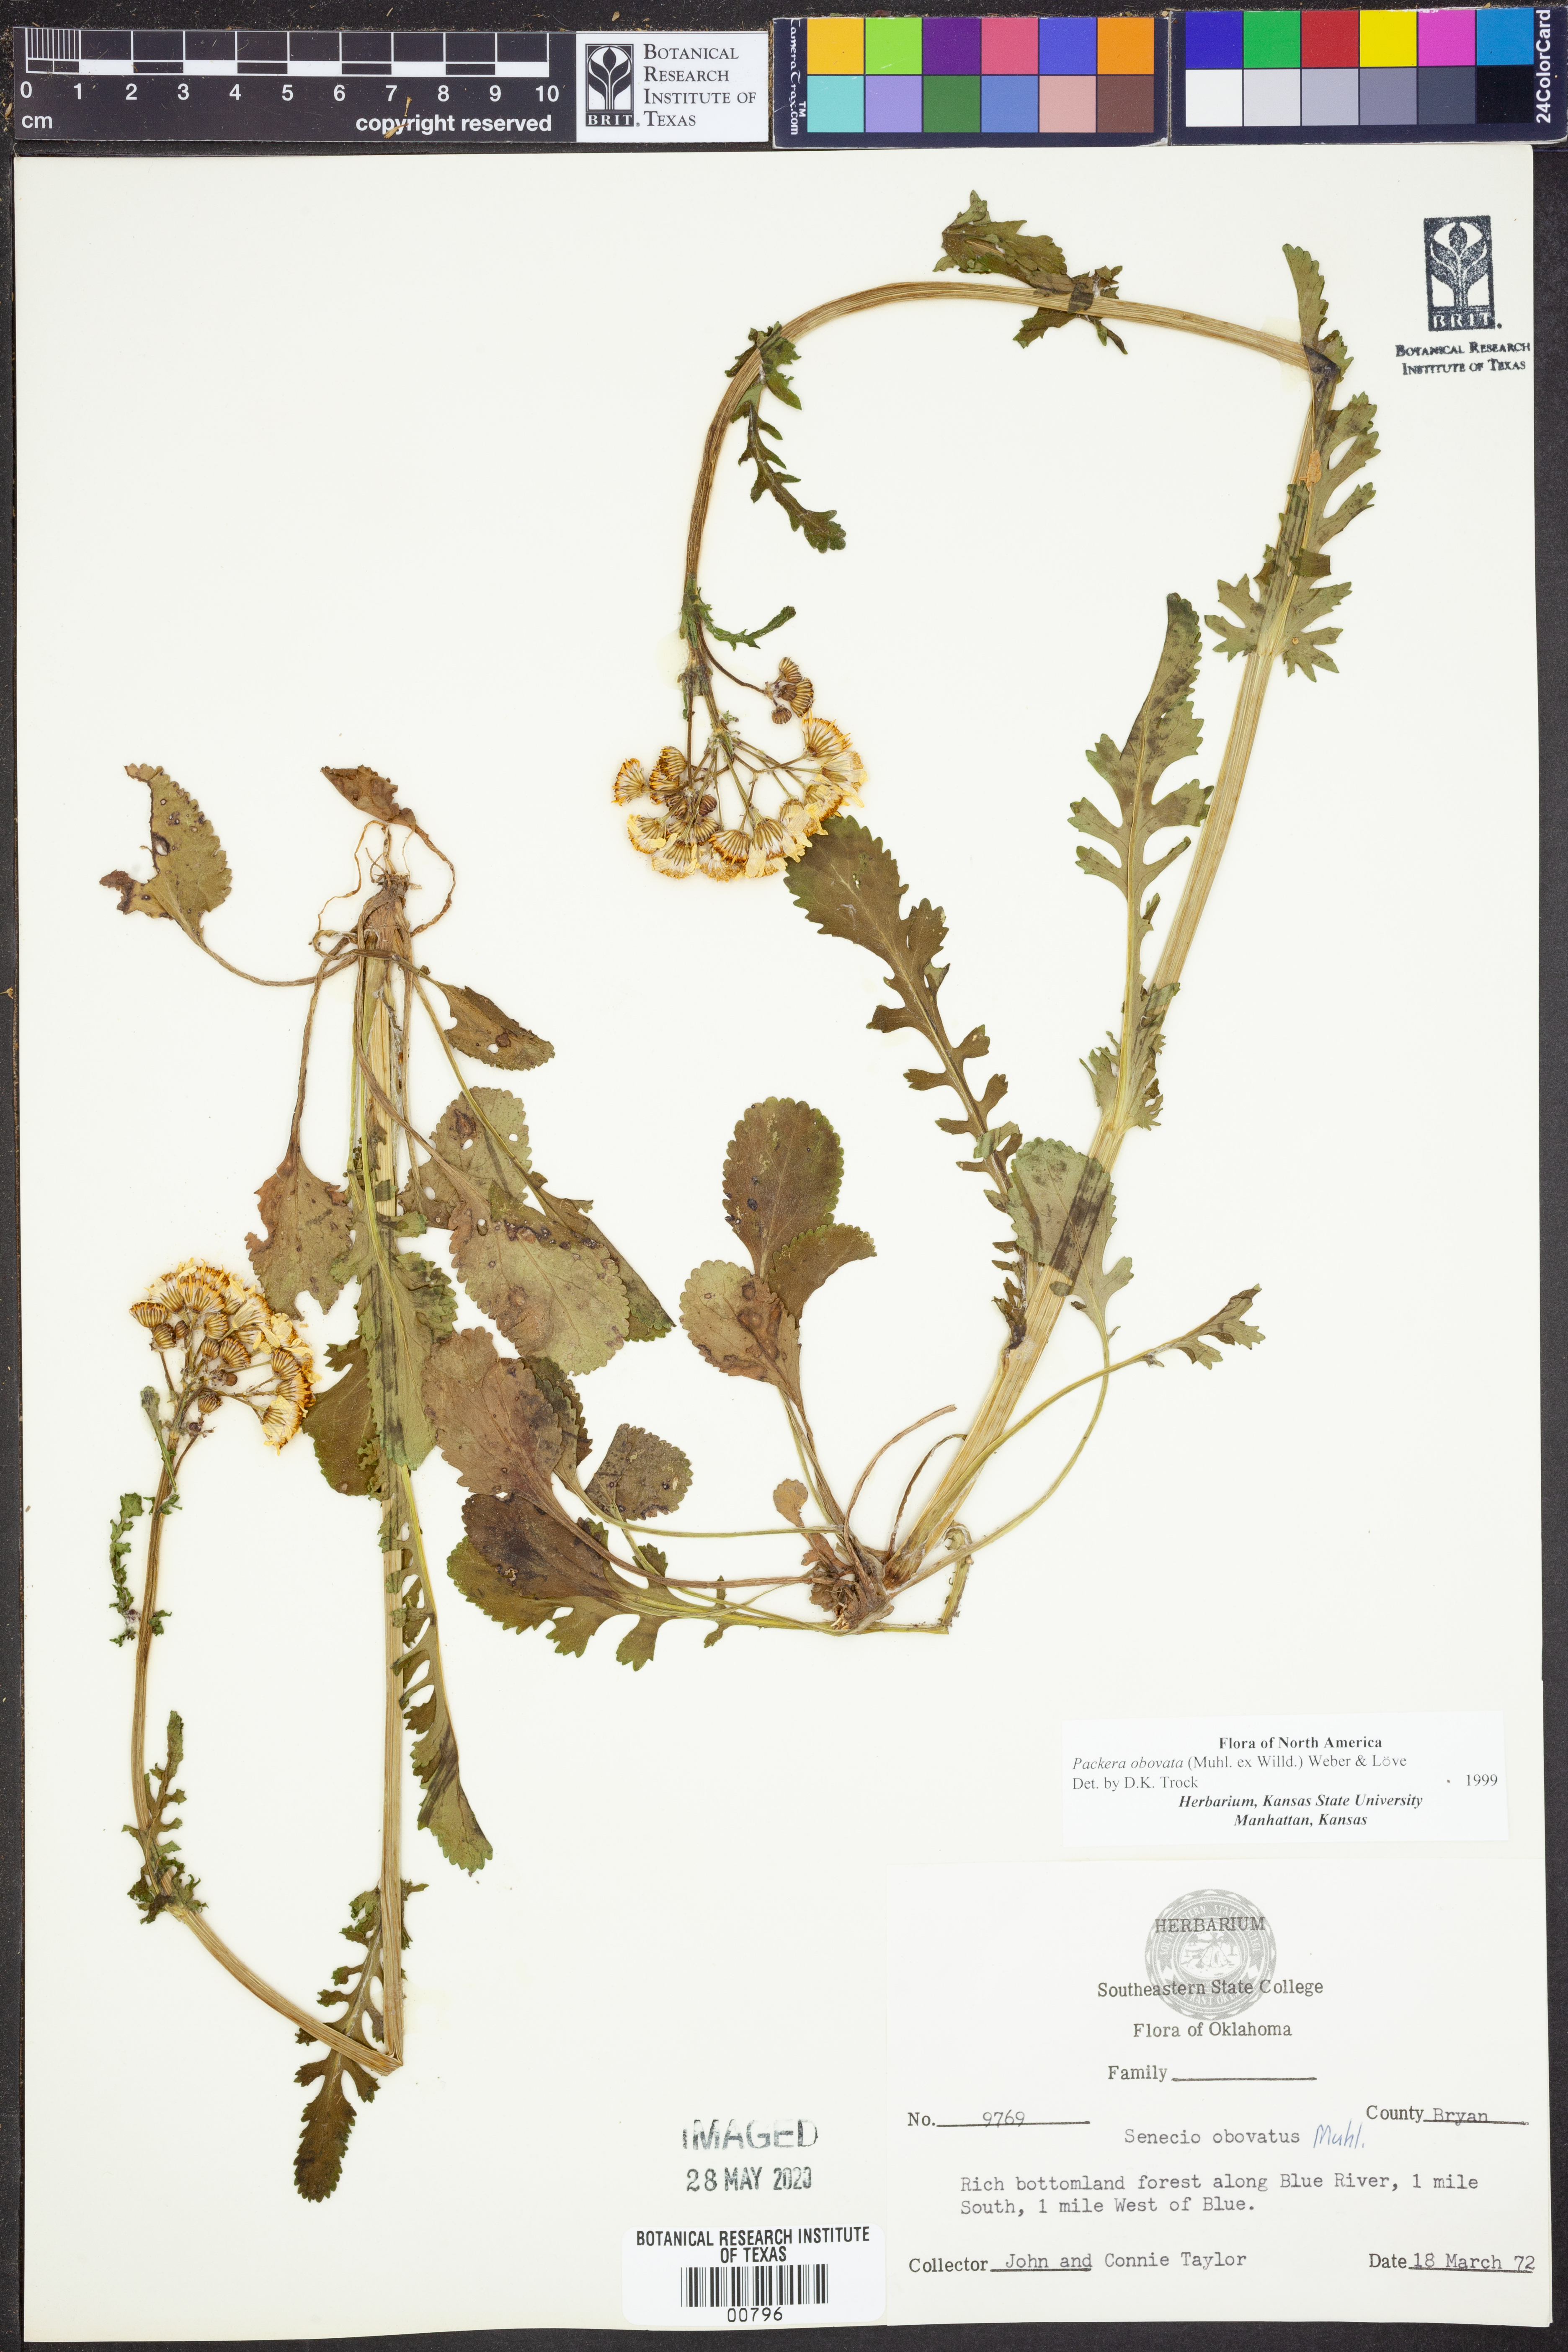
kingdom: Plantae
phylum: Tracheophyta
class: Magnoliopsida
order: Asterales
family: Asteraceae
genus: Packera
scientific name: Packera obovata
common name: Round-leaf ragwort
